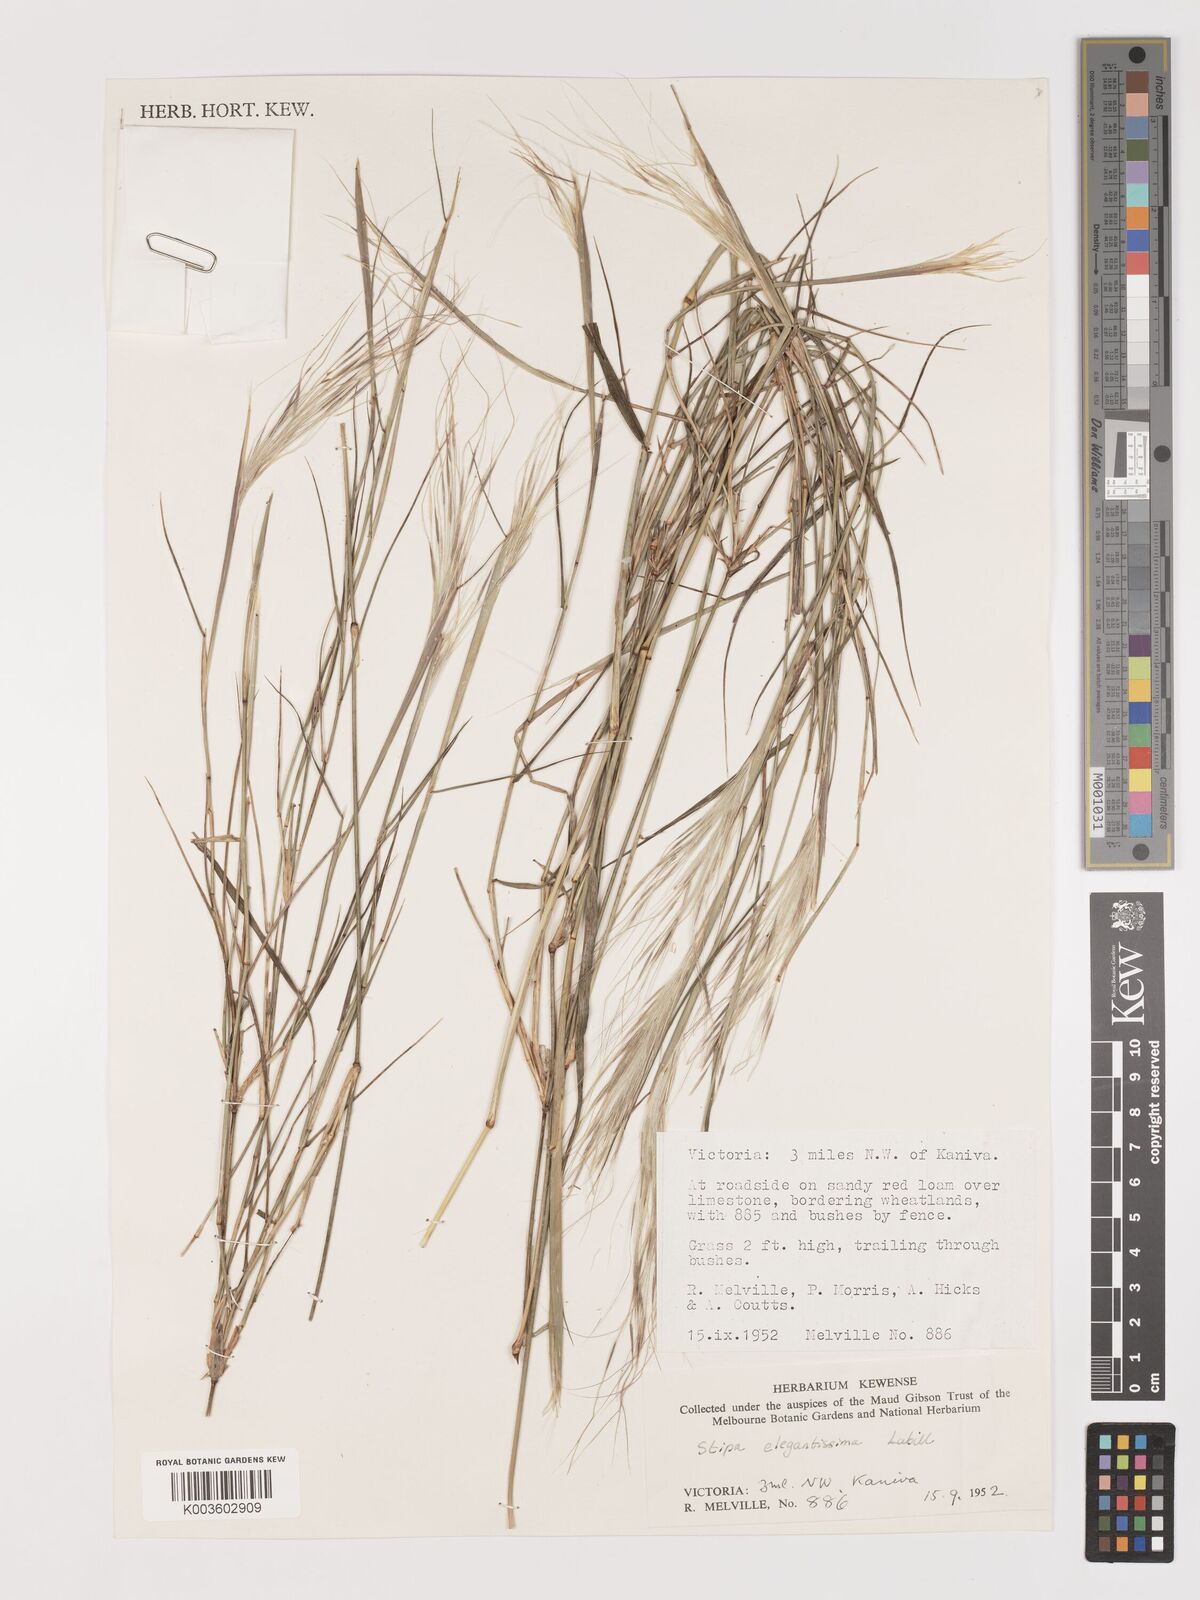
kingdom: Plantae
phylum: Tracheophyta
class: Liliopsida
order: Poales
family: Poaceae
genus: Austrostipa
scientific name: Austrostipa elegantissima
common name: Feather spear grass
